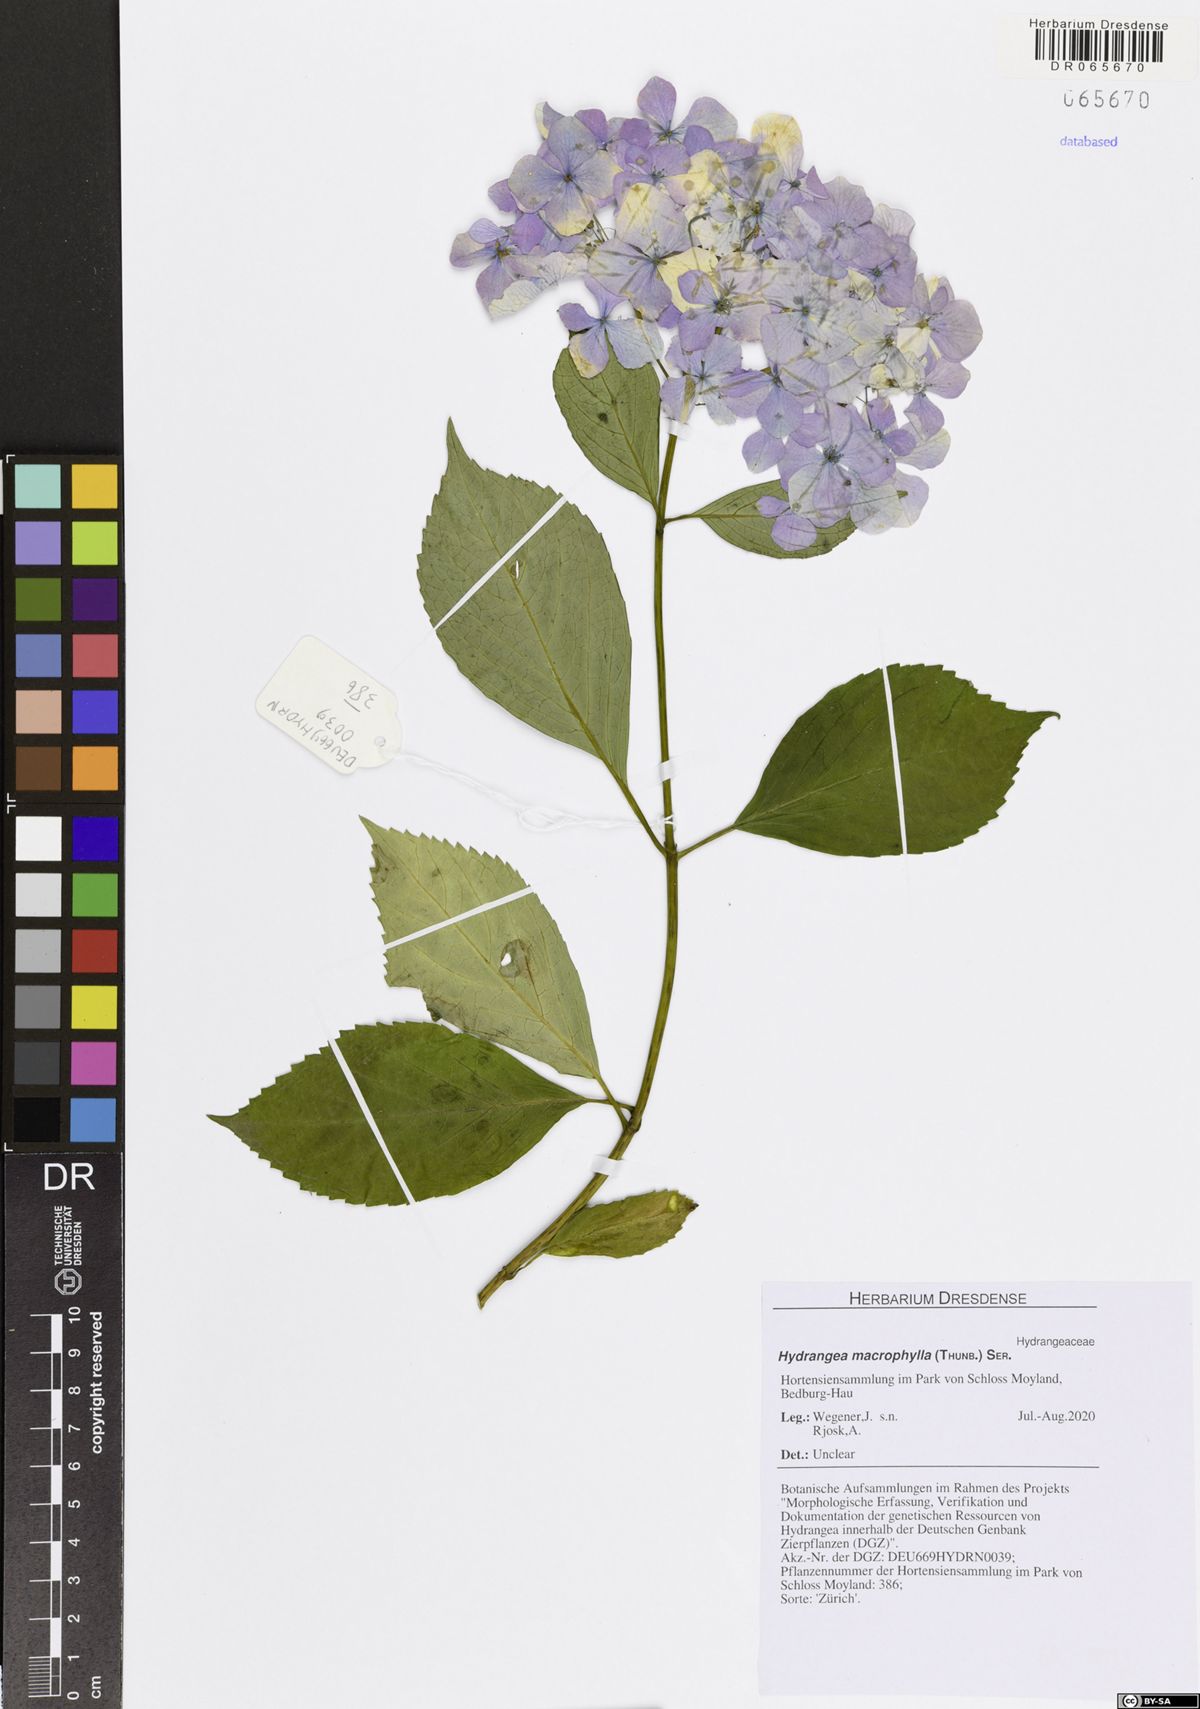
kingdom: Plantae
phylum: Tracheophyta
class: Magnoliopsida
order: Cornales
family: Hydrangeaceae
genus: Hydrangea
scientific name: Hydrangea macrophylla
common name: Hydrangea
